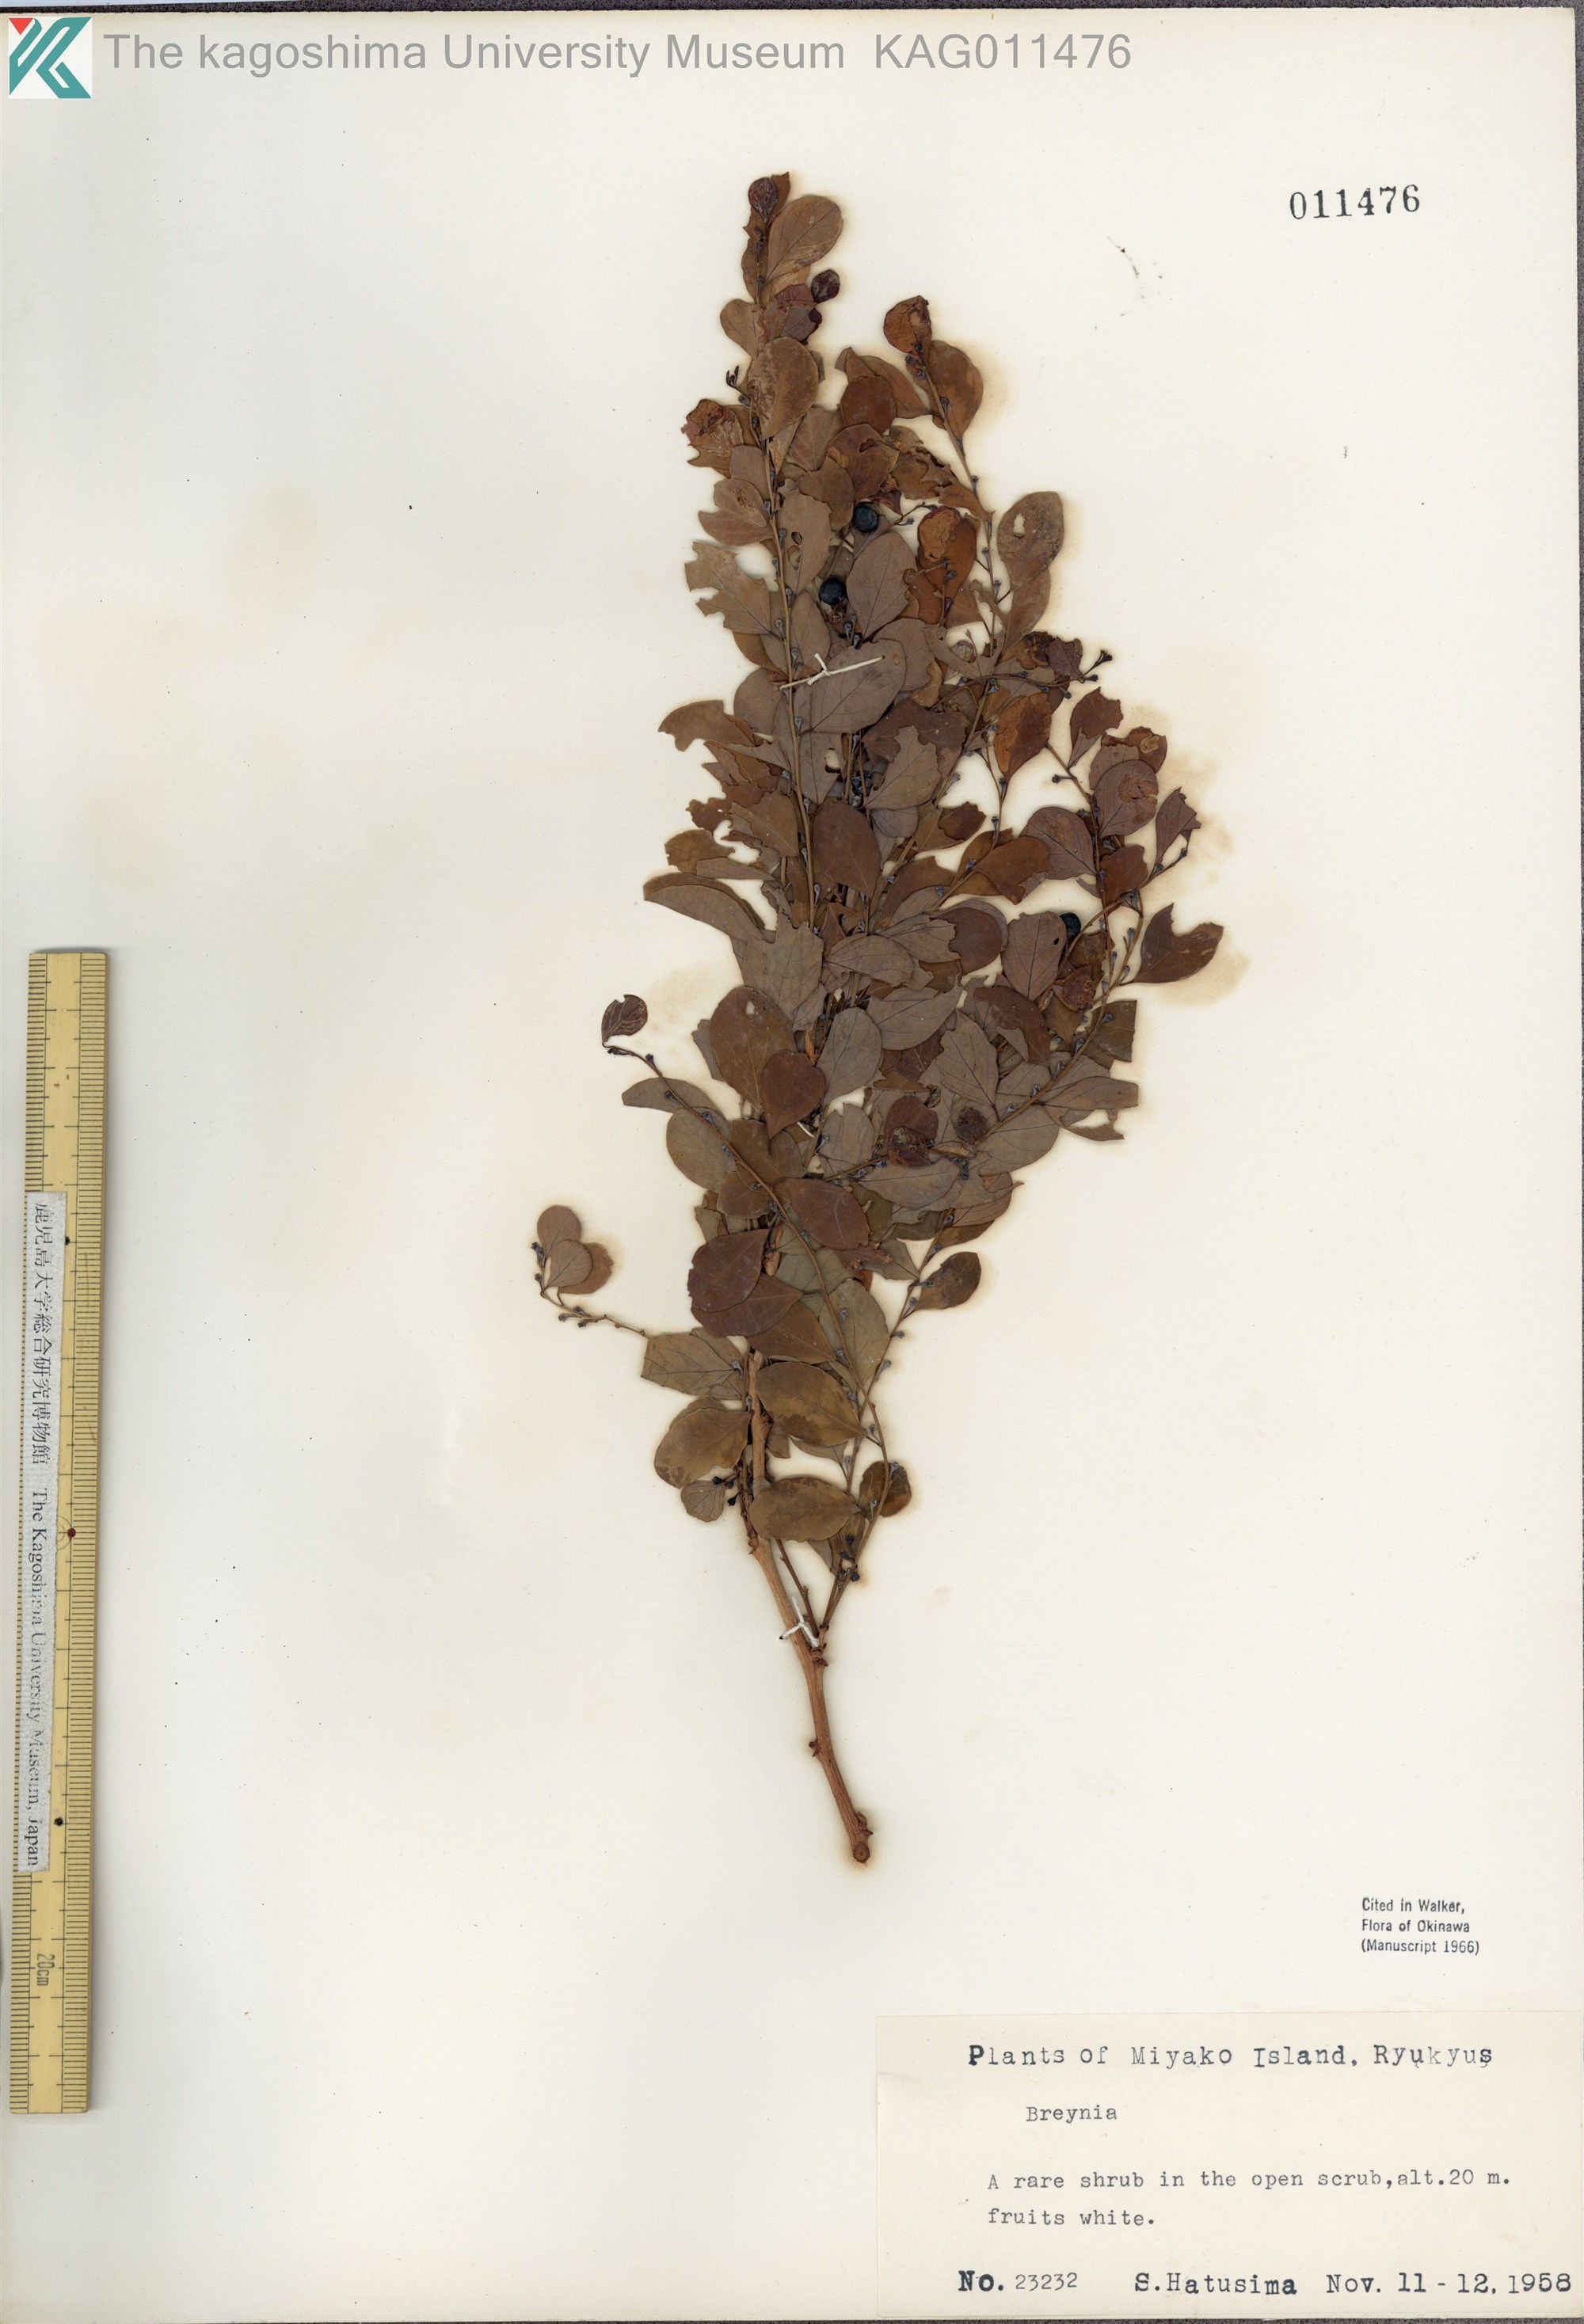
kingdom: Plantae
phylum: Tracheophyta
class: Magnoliopsida
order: Malpighiales
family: Phyllanthaceae
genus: Breynia
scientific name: Breynia vitis-idaea
